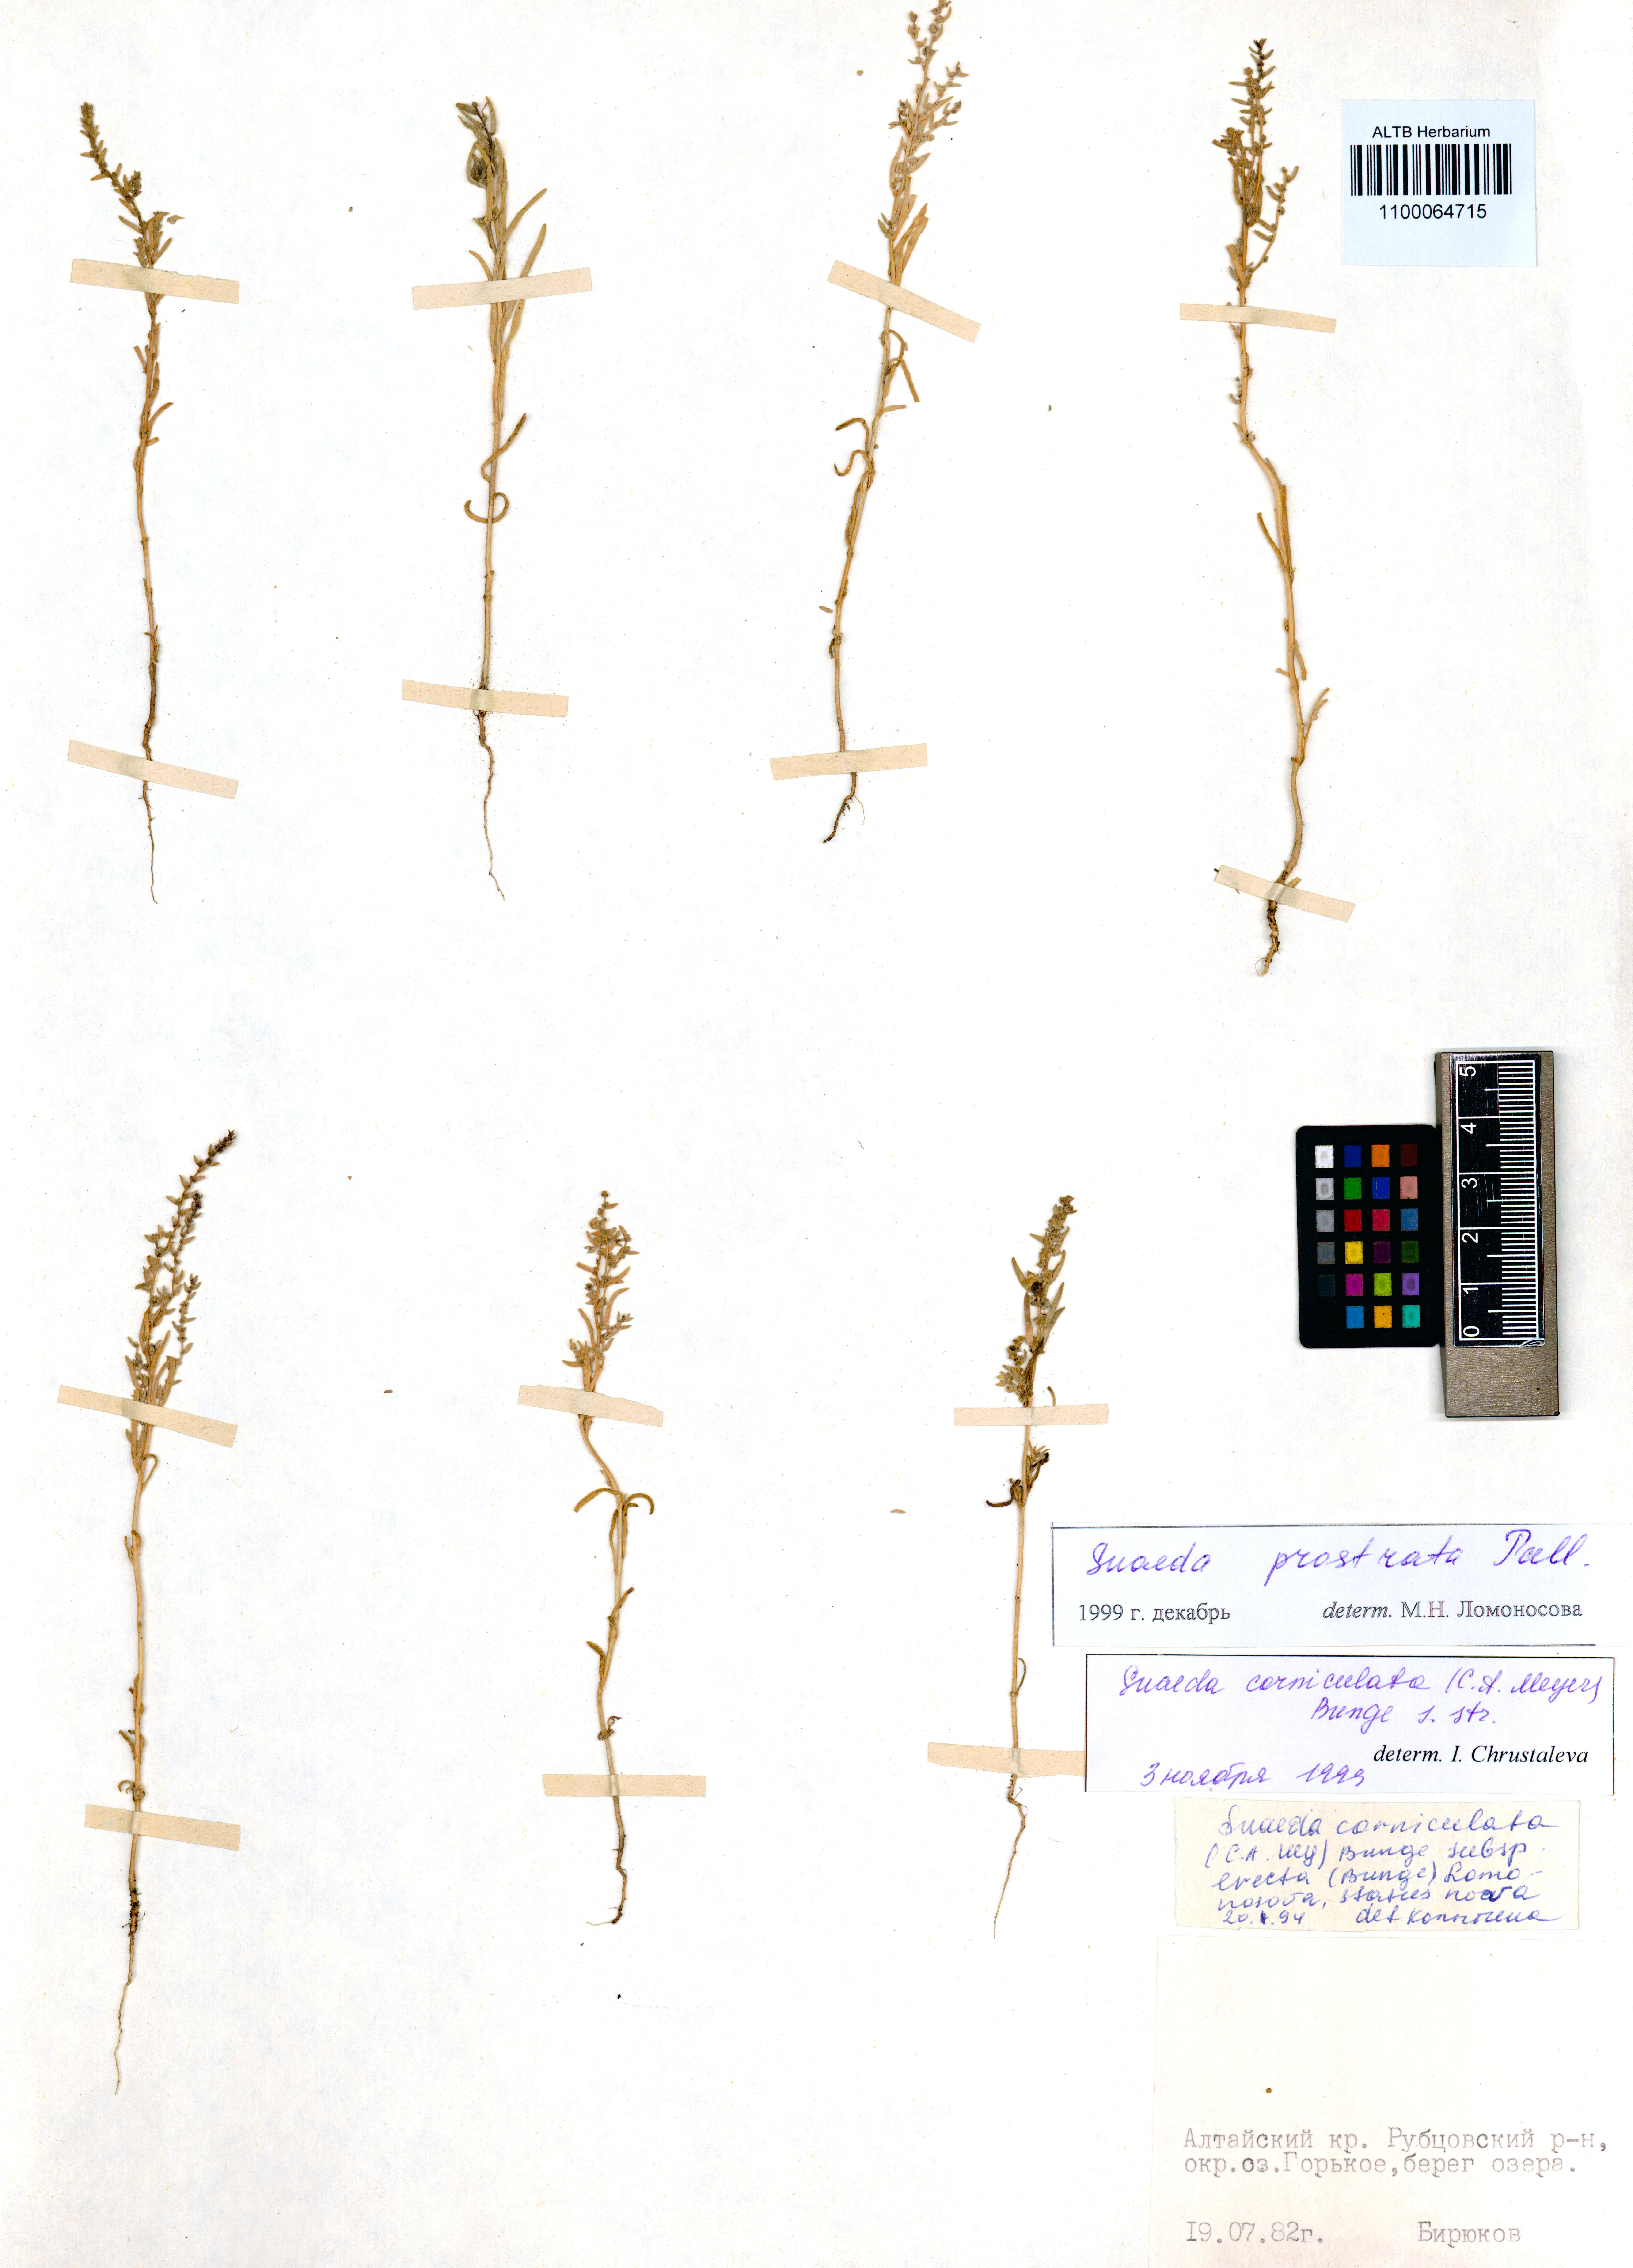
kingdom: Plantae
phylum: Tracheophyta
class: Magnoliopsida
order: Caryophyllales
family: Amaranthaceae
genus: Suaeda
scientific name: Suaeda prostrata
